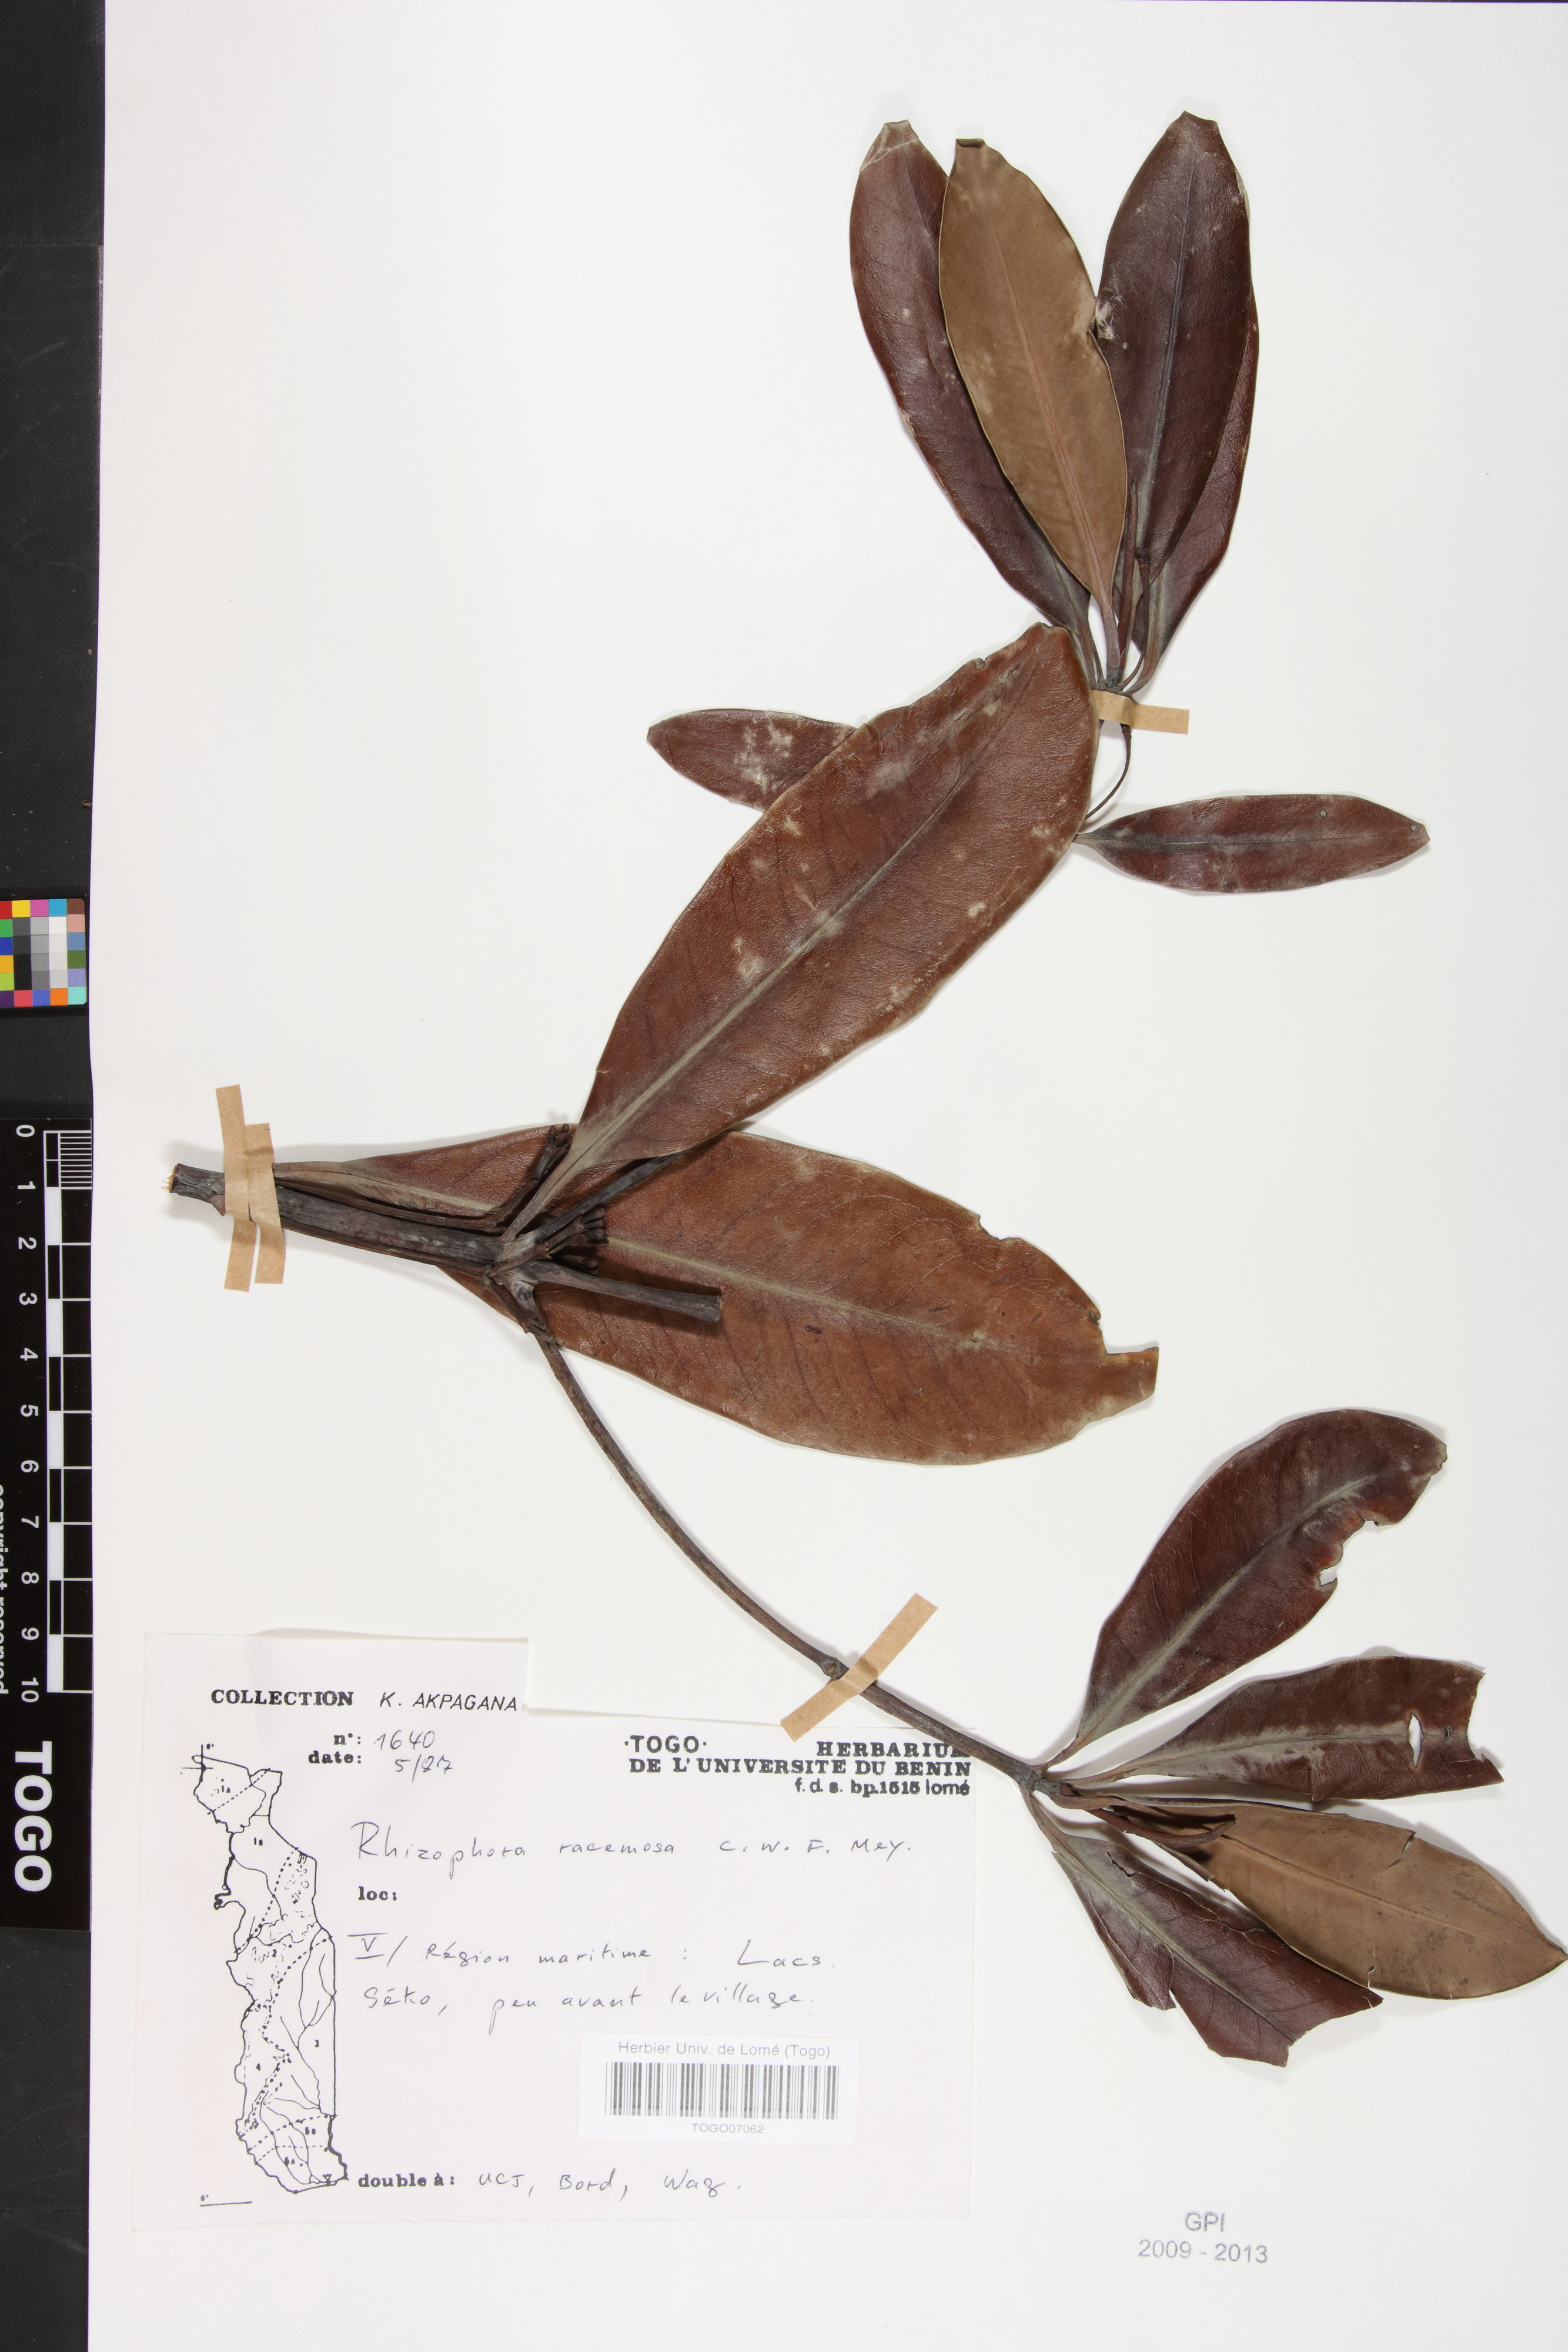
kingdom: Plantae
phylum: Tracheophyta
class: Magnoliopsida
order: Malpighiales
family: Rhizophoraceae
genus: Rhizophora
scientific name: Rhizophora racemosa
